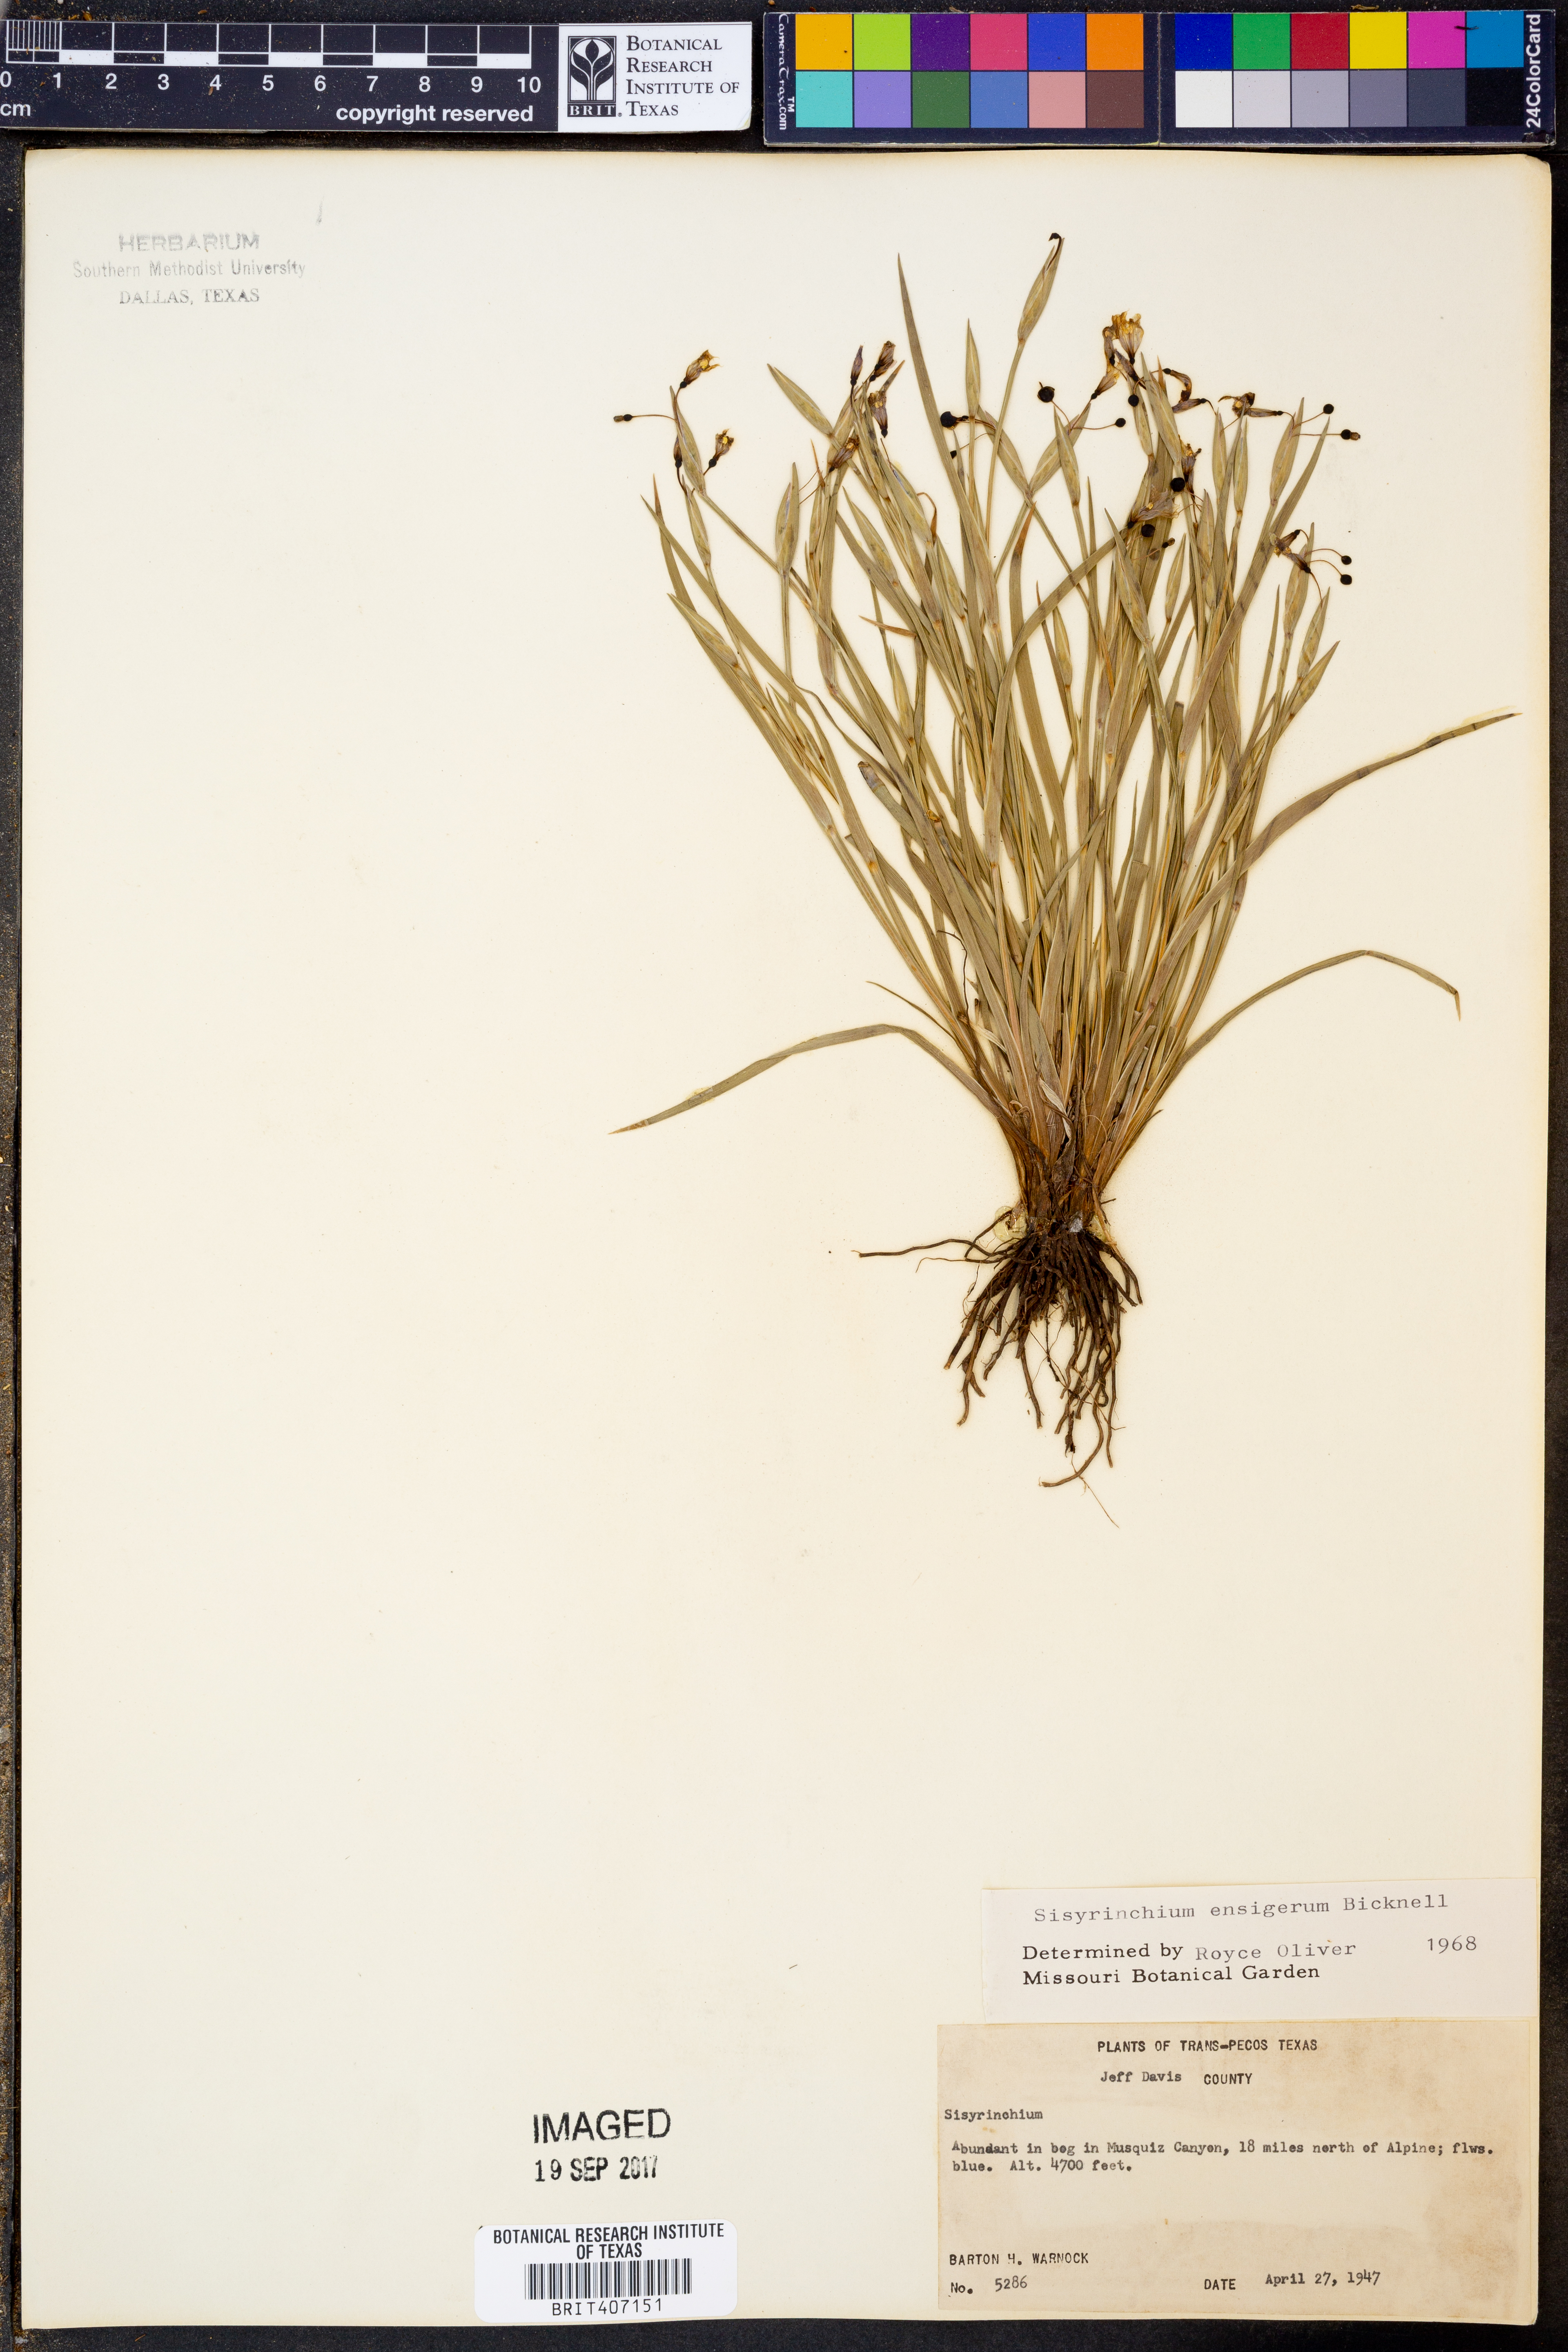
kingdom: Plantae
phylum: Tracheophyta
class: Liliopsida
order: Asparagales
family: Iridaceae
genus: Sisyrinchium
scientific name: Sisyrinchium ensigerum
